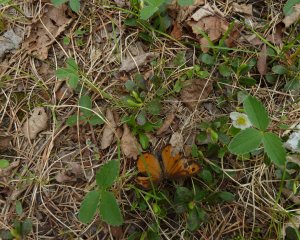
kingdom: Animalia
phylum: Arthropoda
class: Insecta
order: Lepidoptera
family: Nymphalidae
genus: Oeneis
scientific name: Oeneis macounii
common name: Macoun's Arctic
